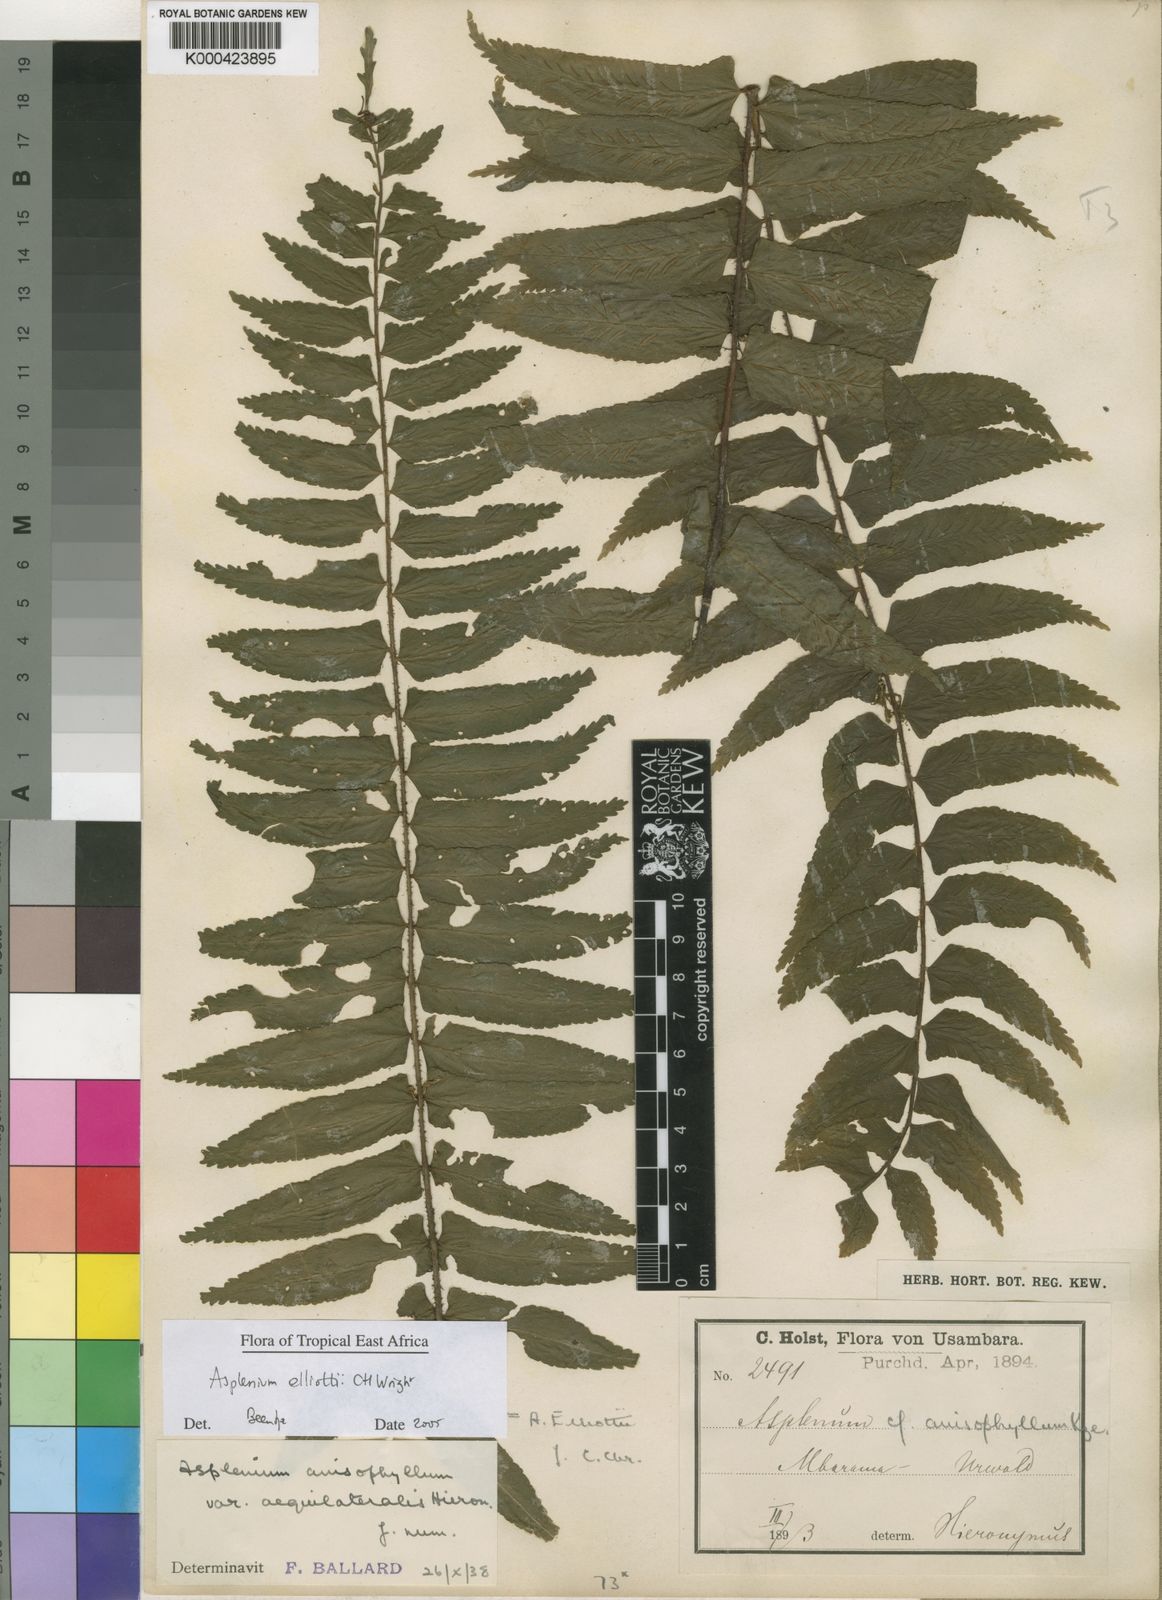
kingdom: Plantae
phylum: Tracheophyta
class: Polypodiopsida
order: Polypodiales
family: Aspleniaceae
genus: Asplenium
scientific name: Asplenium elliottii
